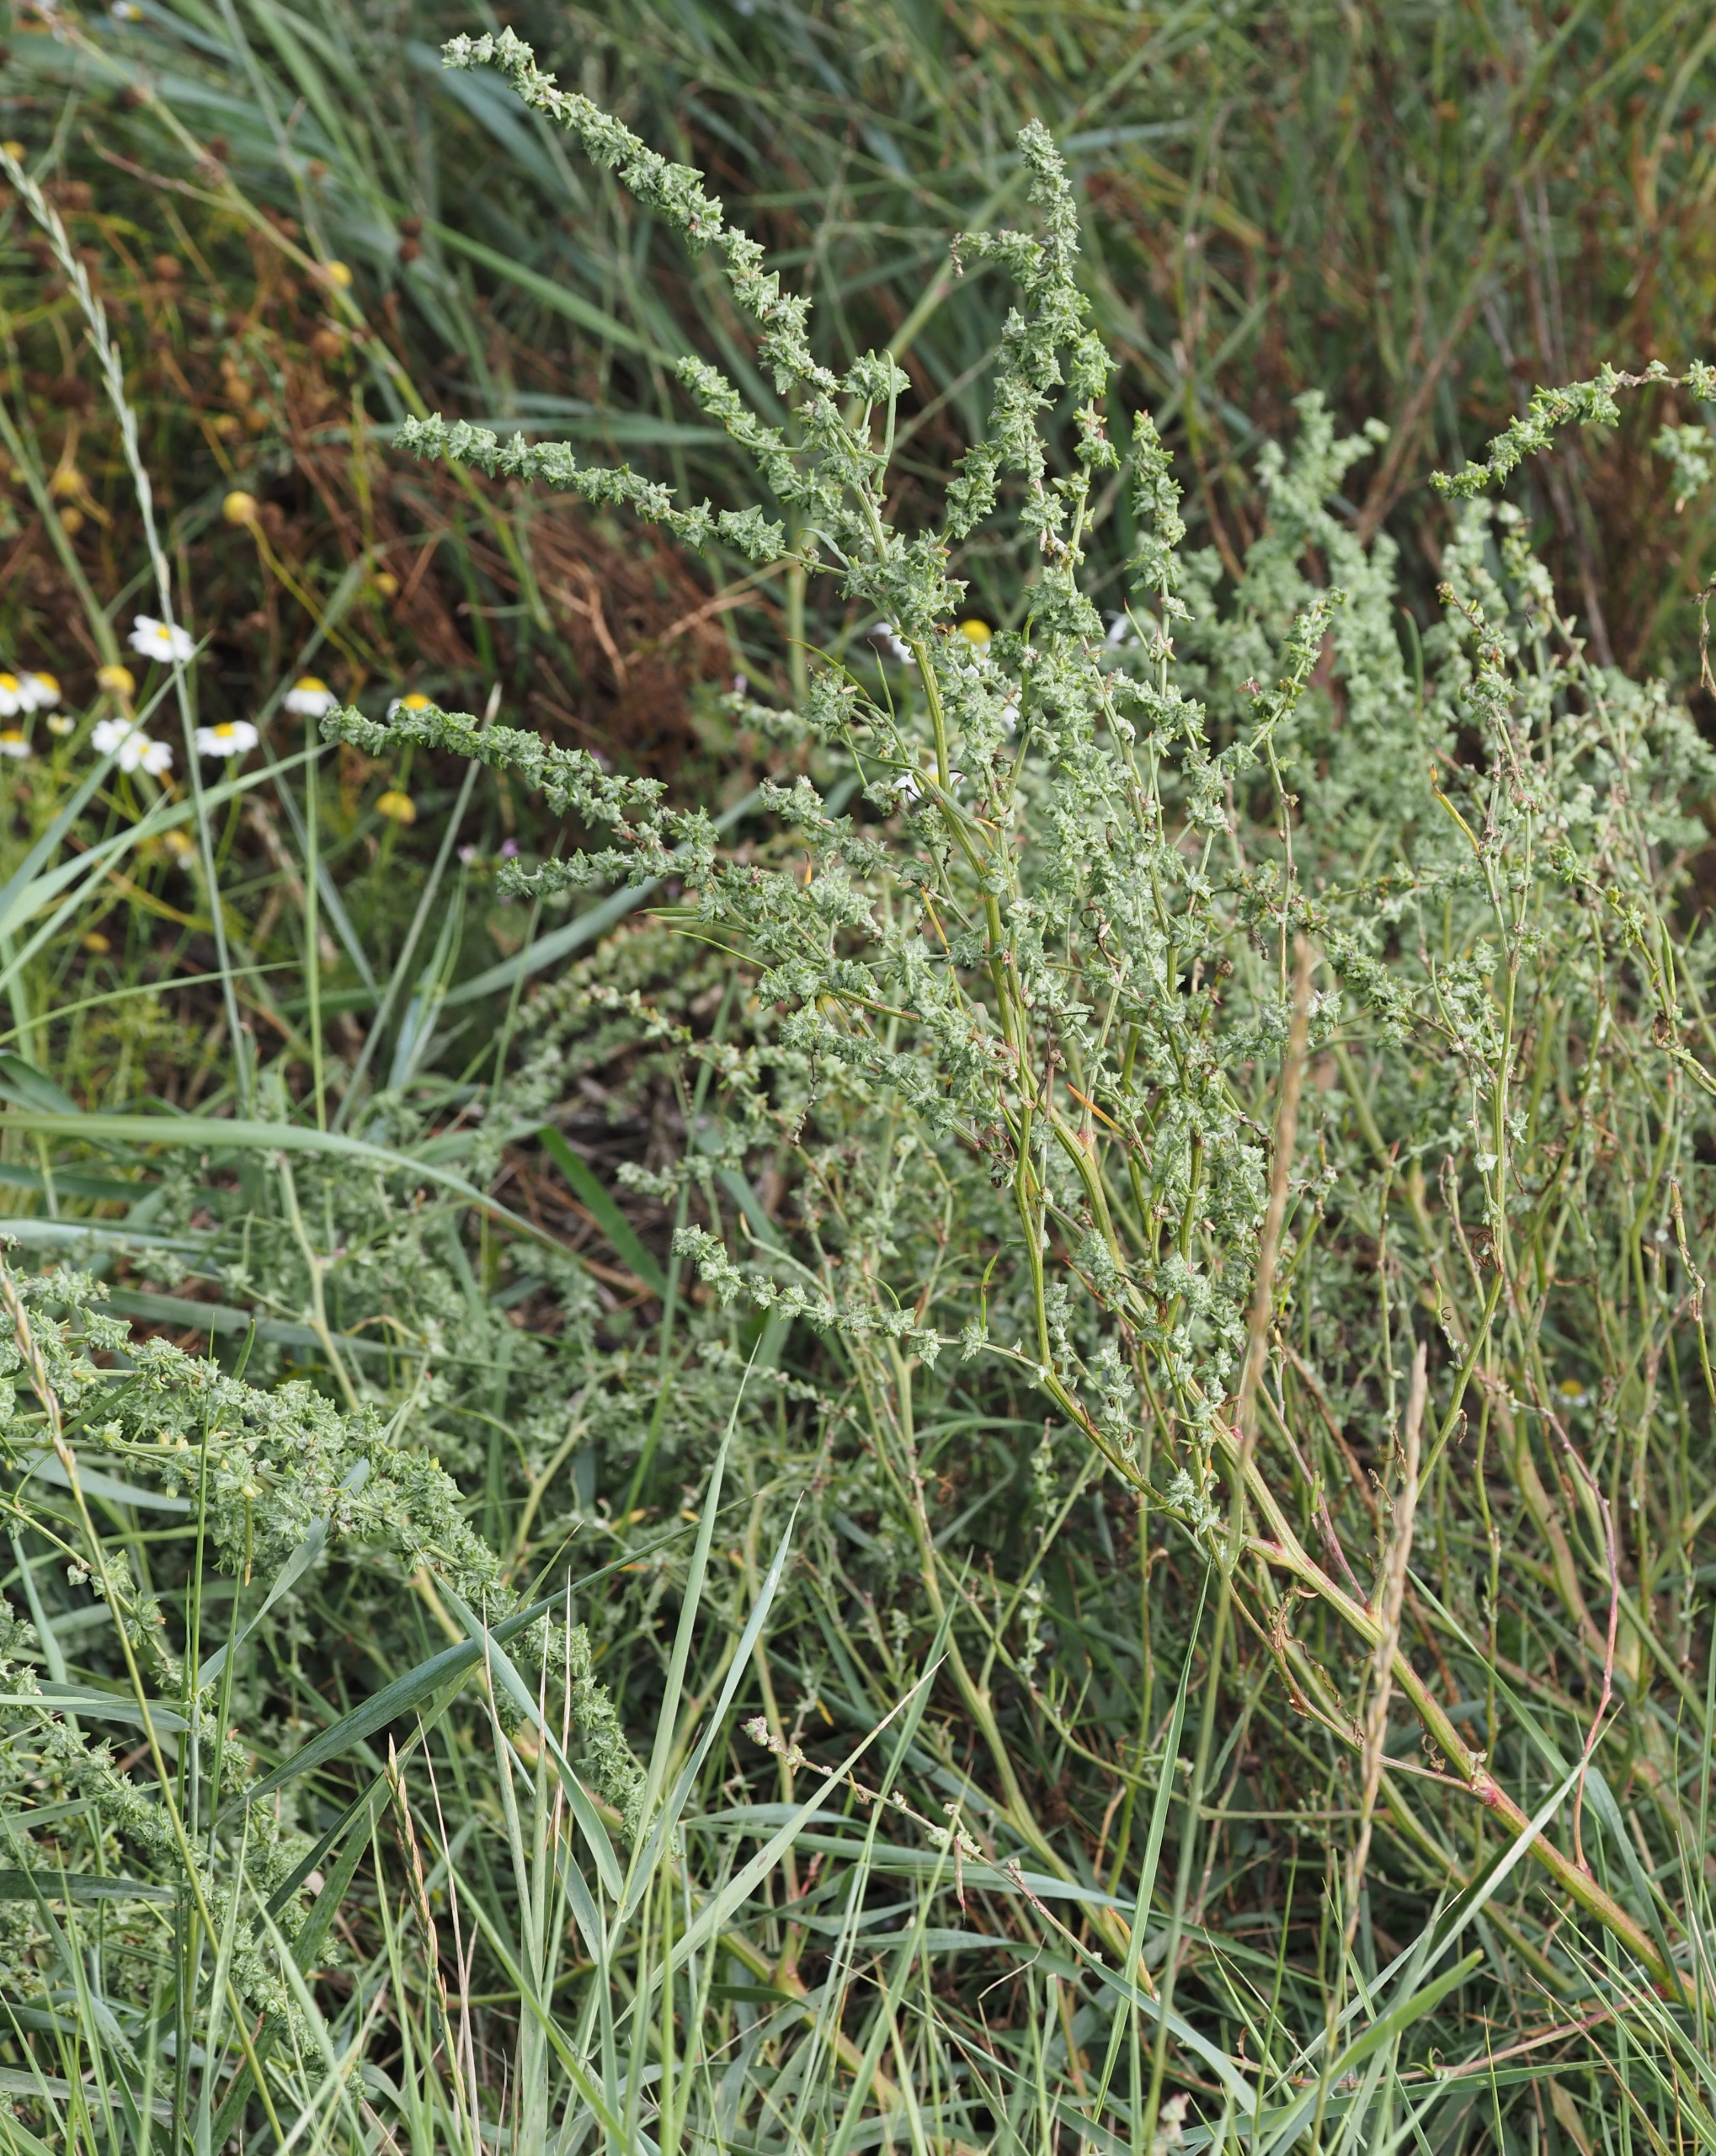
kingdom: Plantae
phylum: Tracheophyta
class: Magnoliopsida
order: Caryophyllales
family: Amaranthaceae
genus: Atriplex
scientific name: Atriplex littoralis
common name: Strand-mælde
